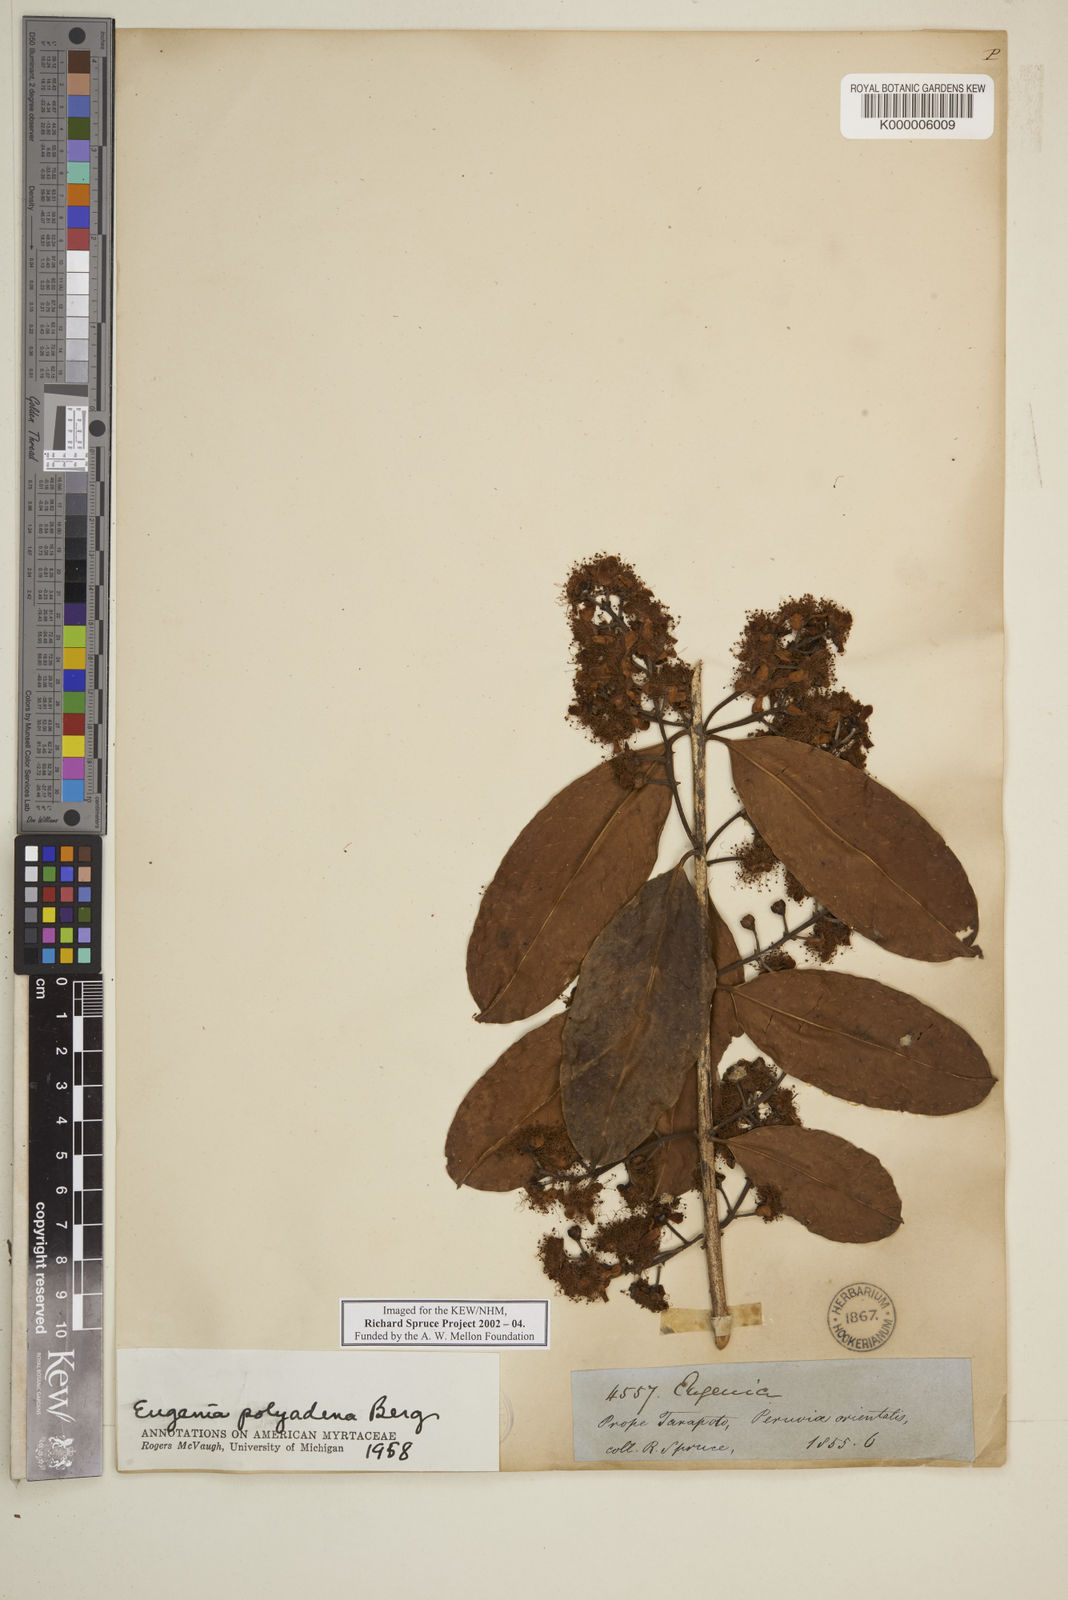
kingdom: Plantae
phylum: Tracheophyta
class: Magnoliopsida
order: Myrtales
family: Myrtaceae
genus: Eugenia
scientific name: Eugenia polyadena
